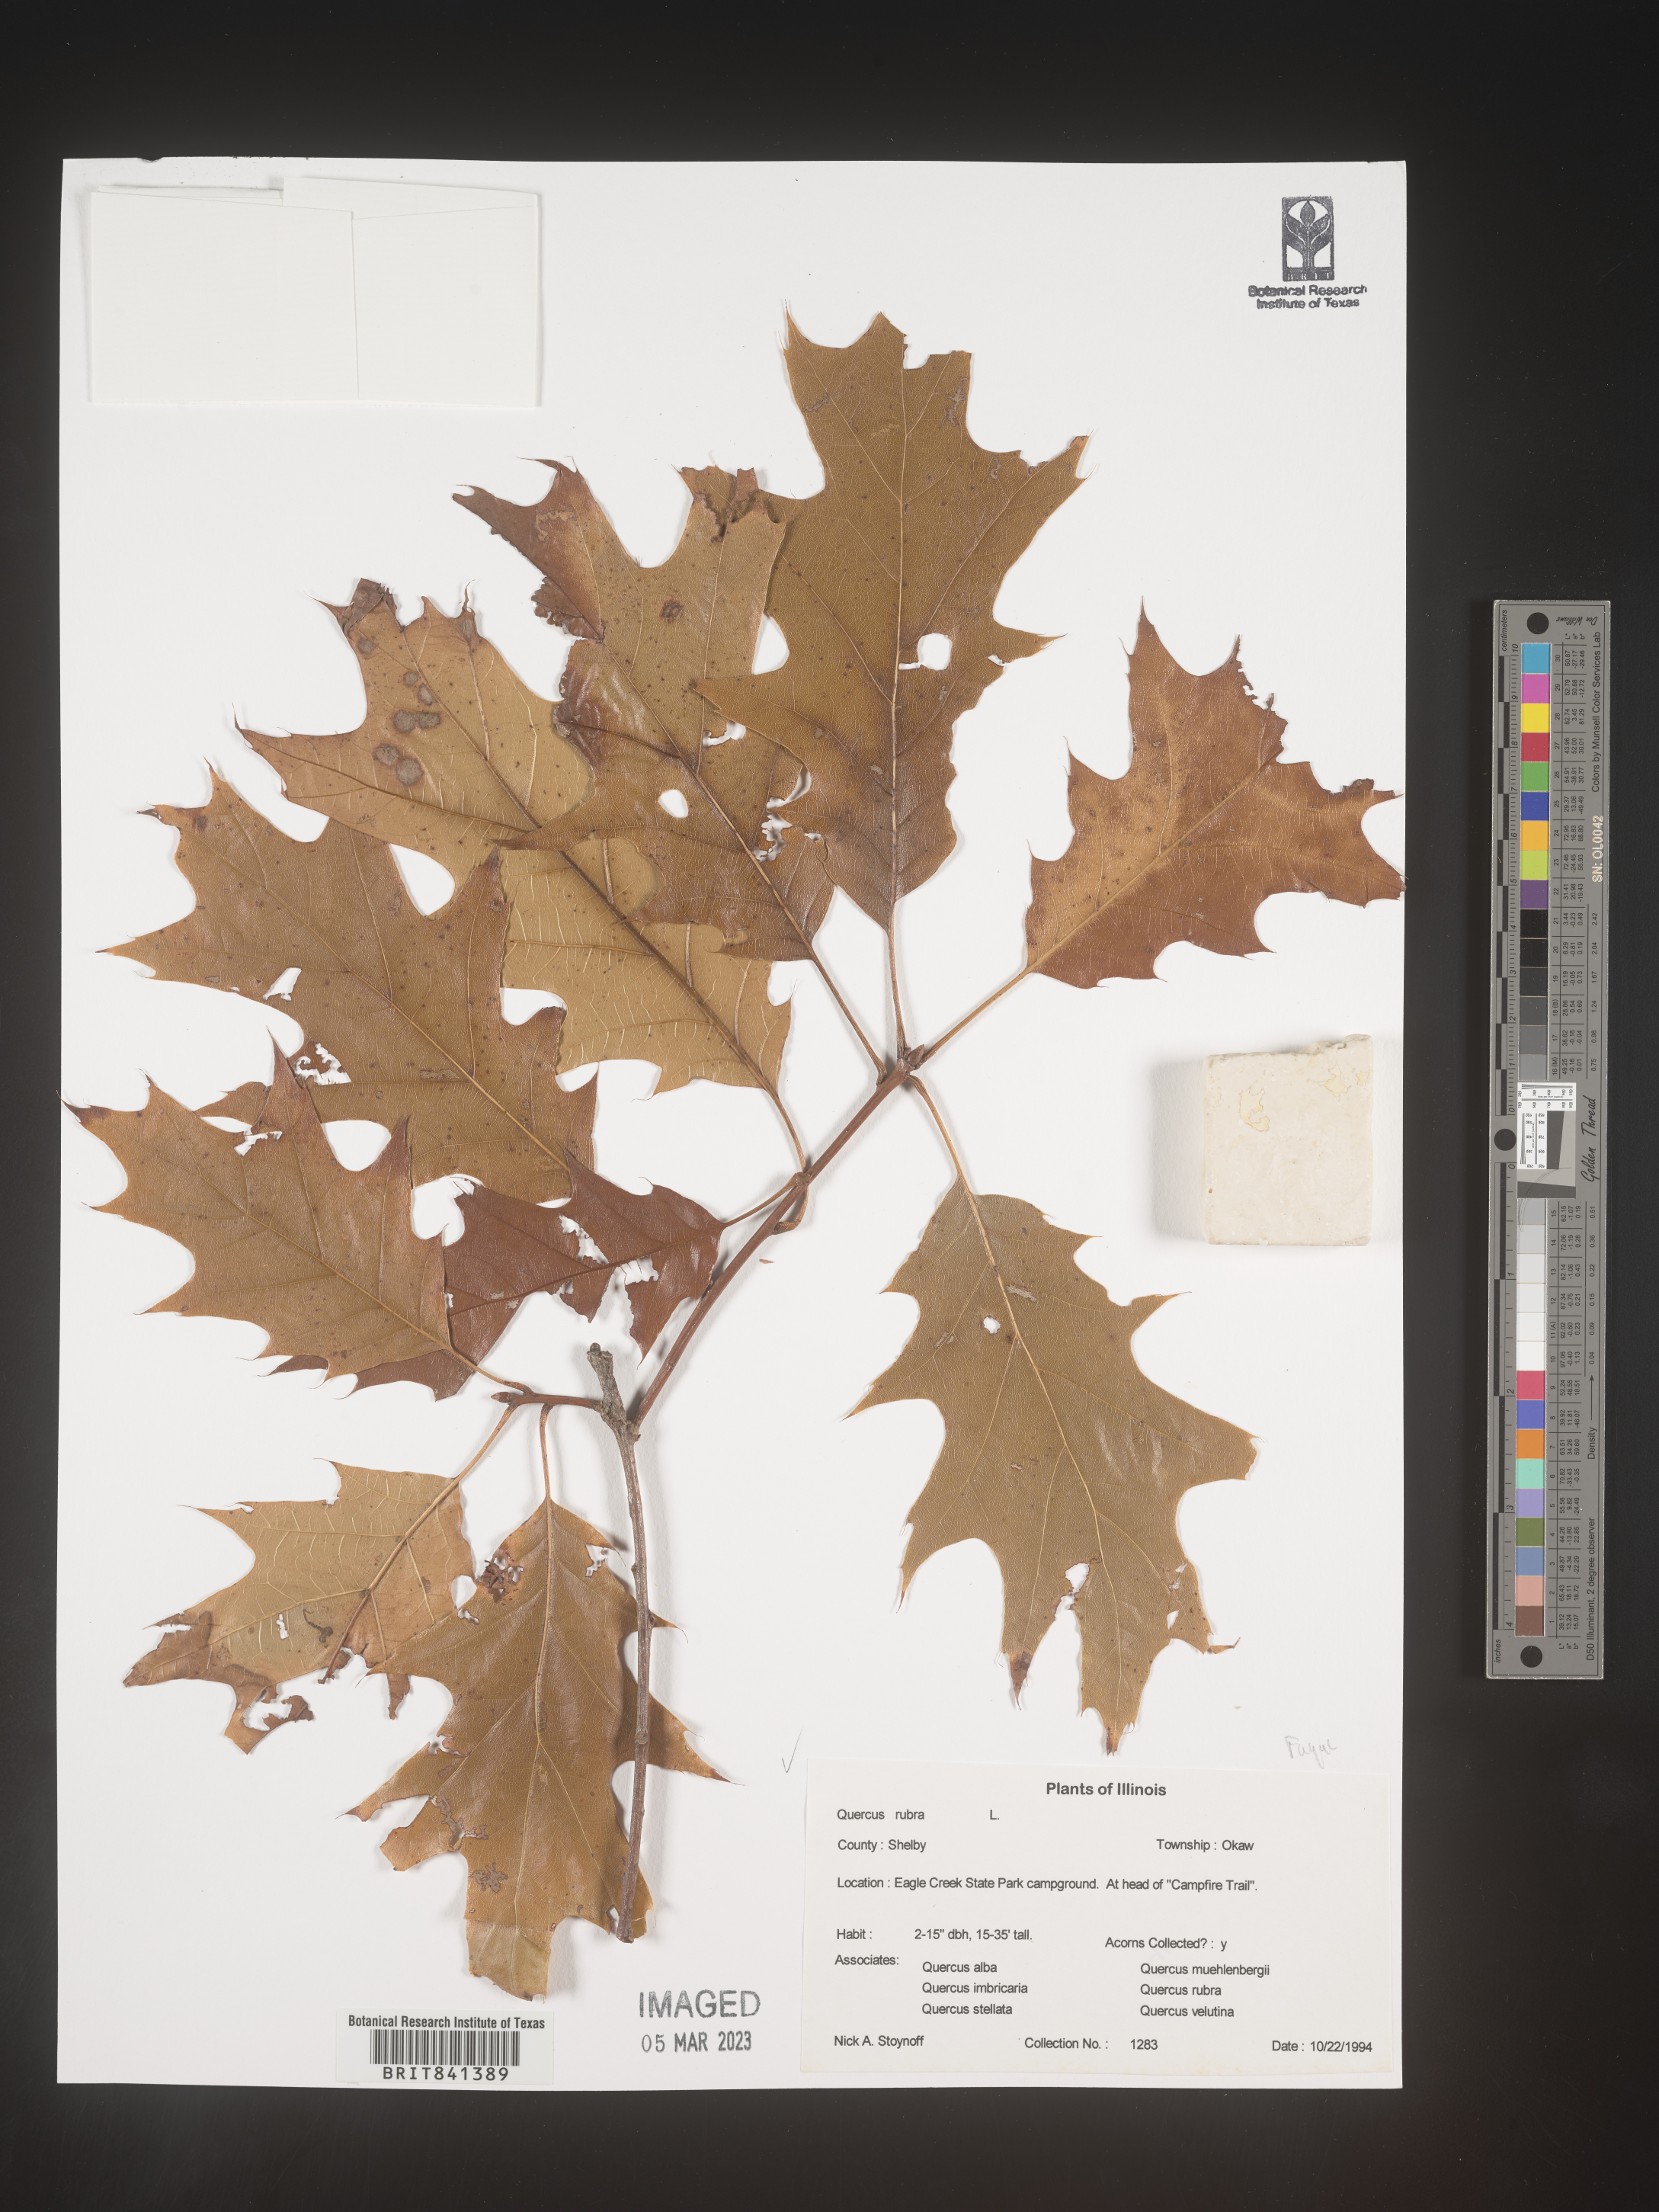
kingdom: Plantae
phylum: Tracheophyta
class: Magnoliopsida
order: Fagales
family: Fagaceae
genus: Quercus
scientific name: Quercus rubra
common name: Red oak
